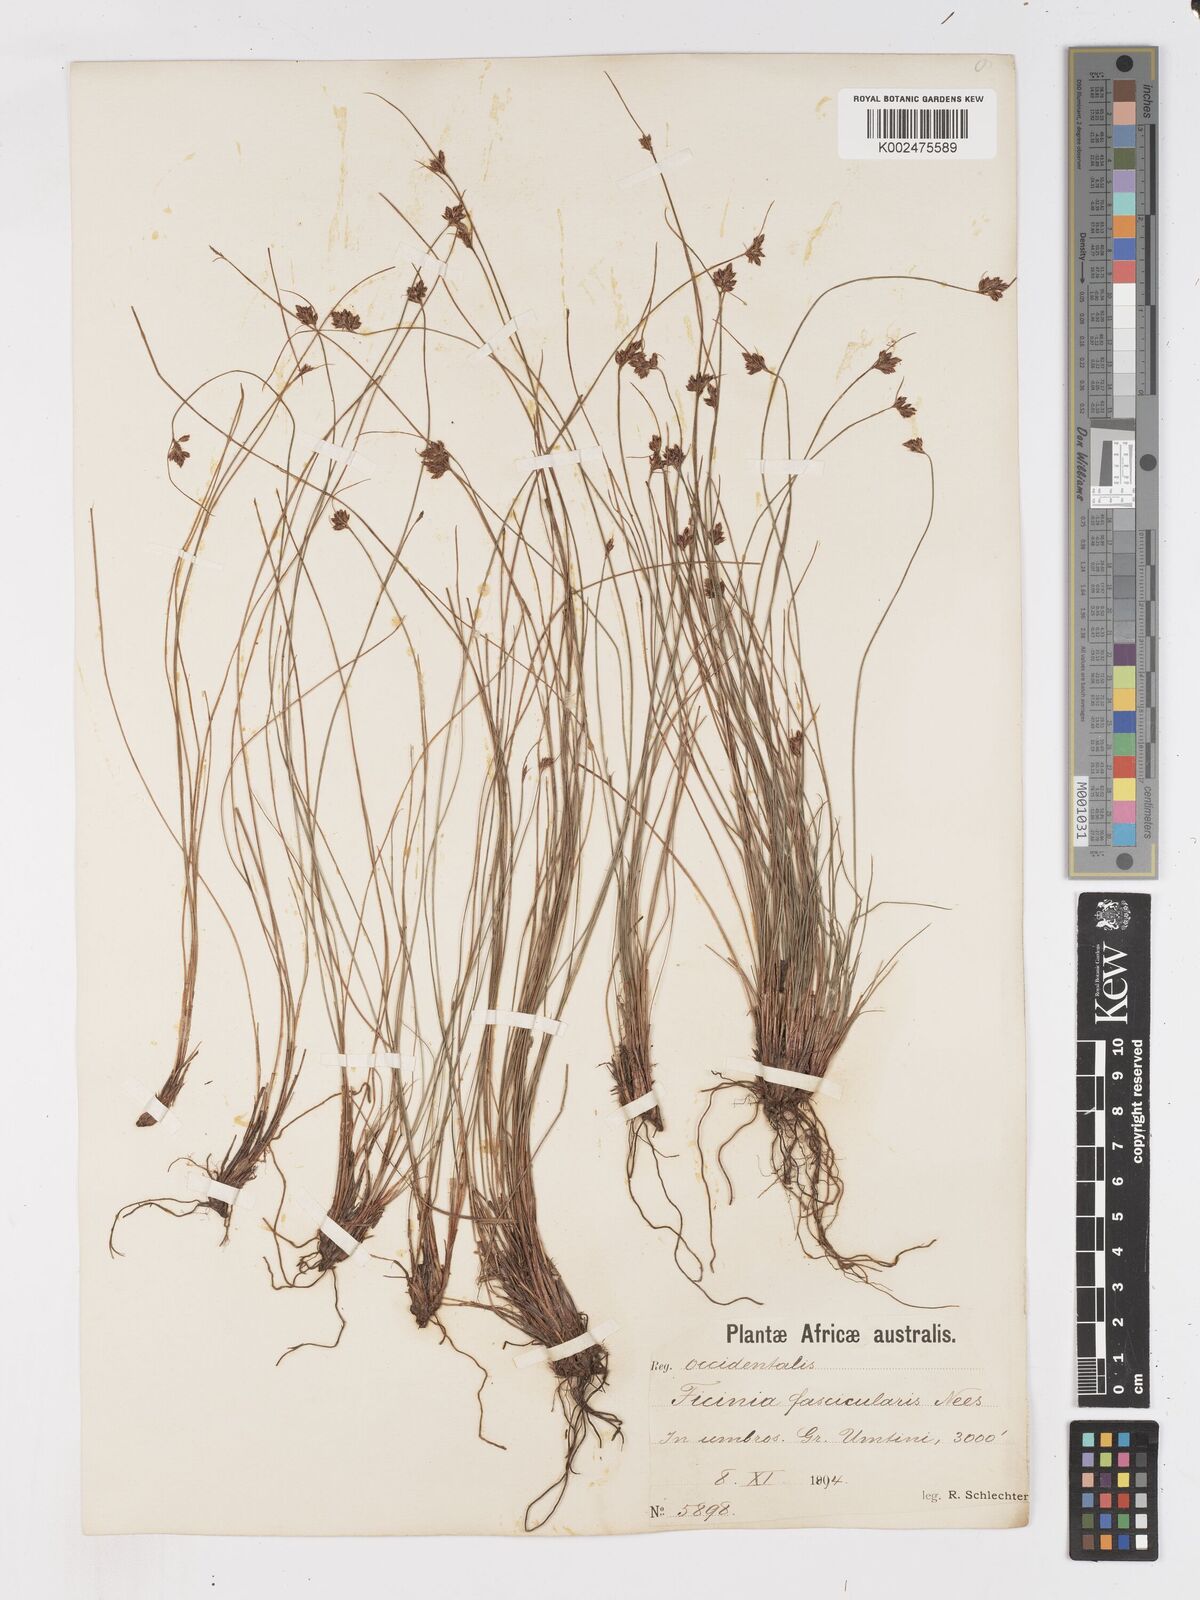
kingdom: Plantae
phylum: Tracheophyta
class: Liliopsida
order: Poales
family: Cyperaceae
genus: Ficinia
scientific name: Ficinia fascicularis
